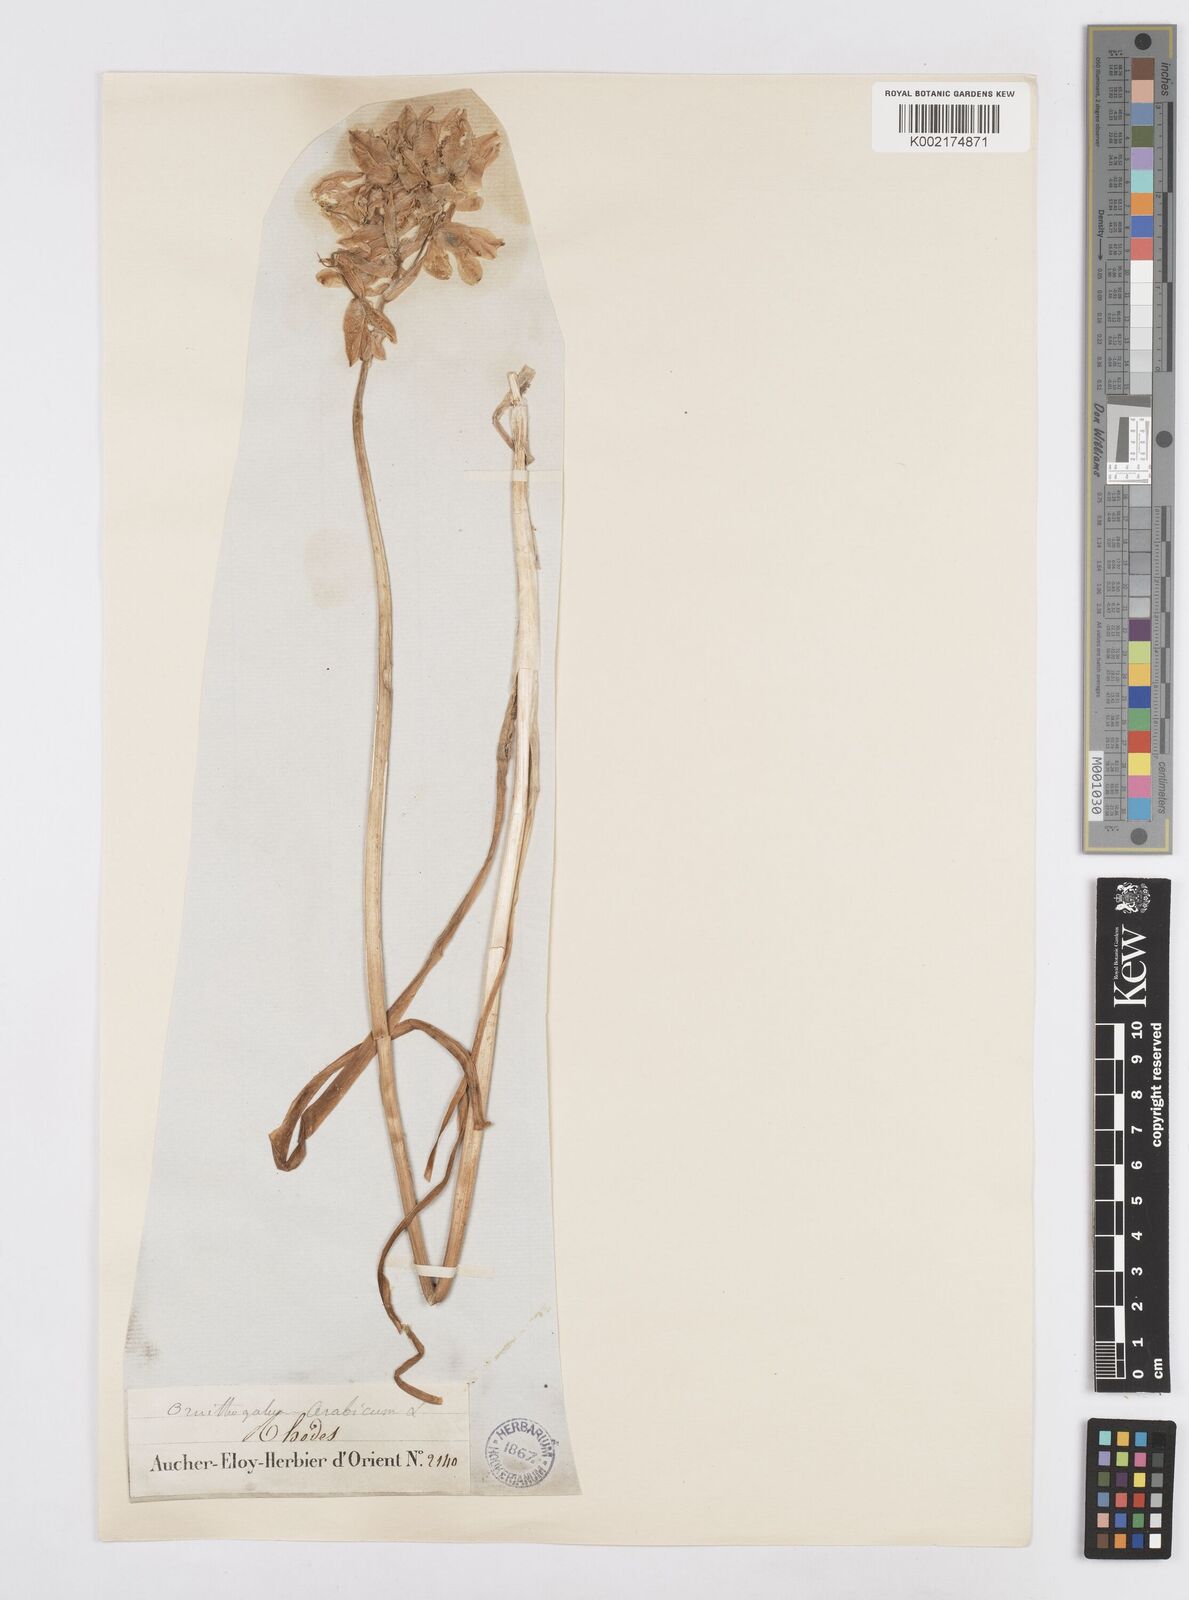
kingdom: Plantae
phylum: Tracheophyta
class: Liliopsida
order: Asparagales
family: Asparagaceae
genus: Ornithogalum
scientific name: Ornithogalum arabicum
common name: Arabian starflower
